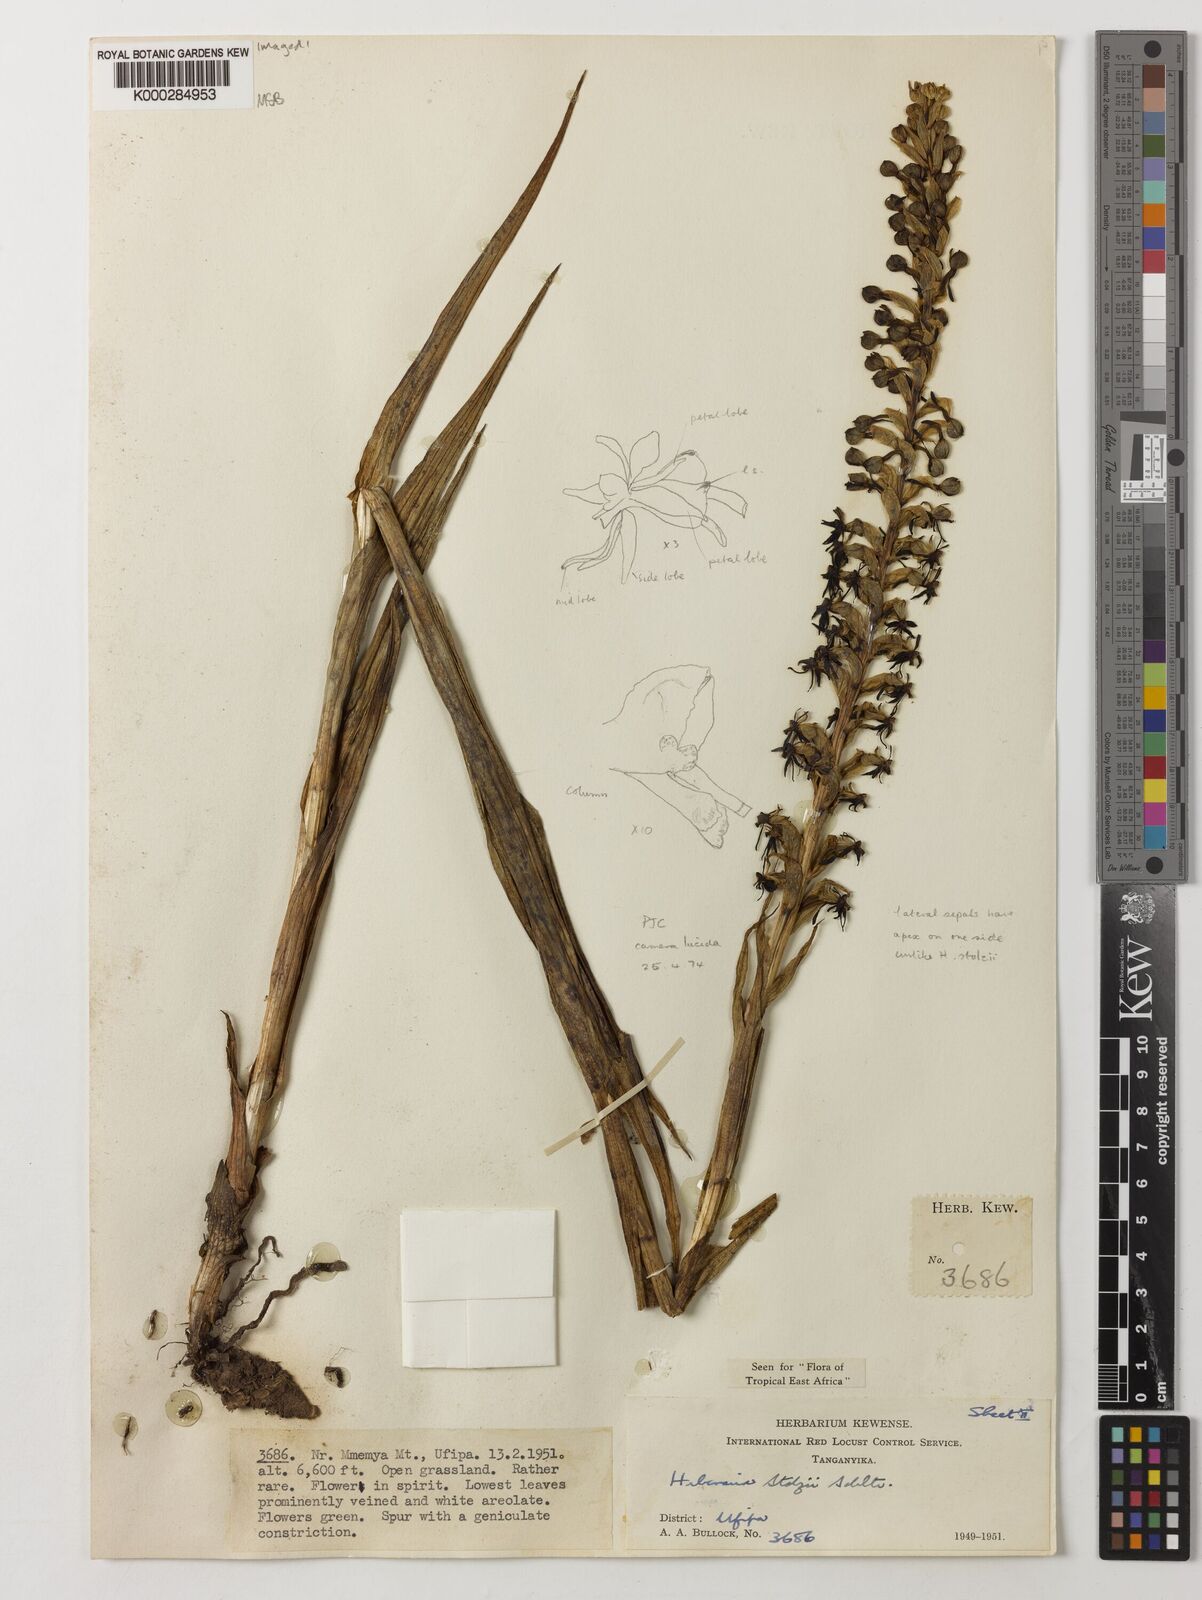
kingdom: Plantae
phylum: Tracheophyta
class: Liliopsida
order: Asparagales
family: Orchidaceae
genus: Habenaria
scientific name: Habenaria tortilis
